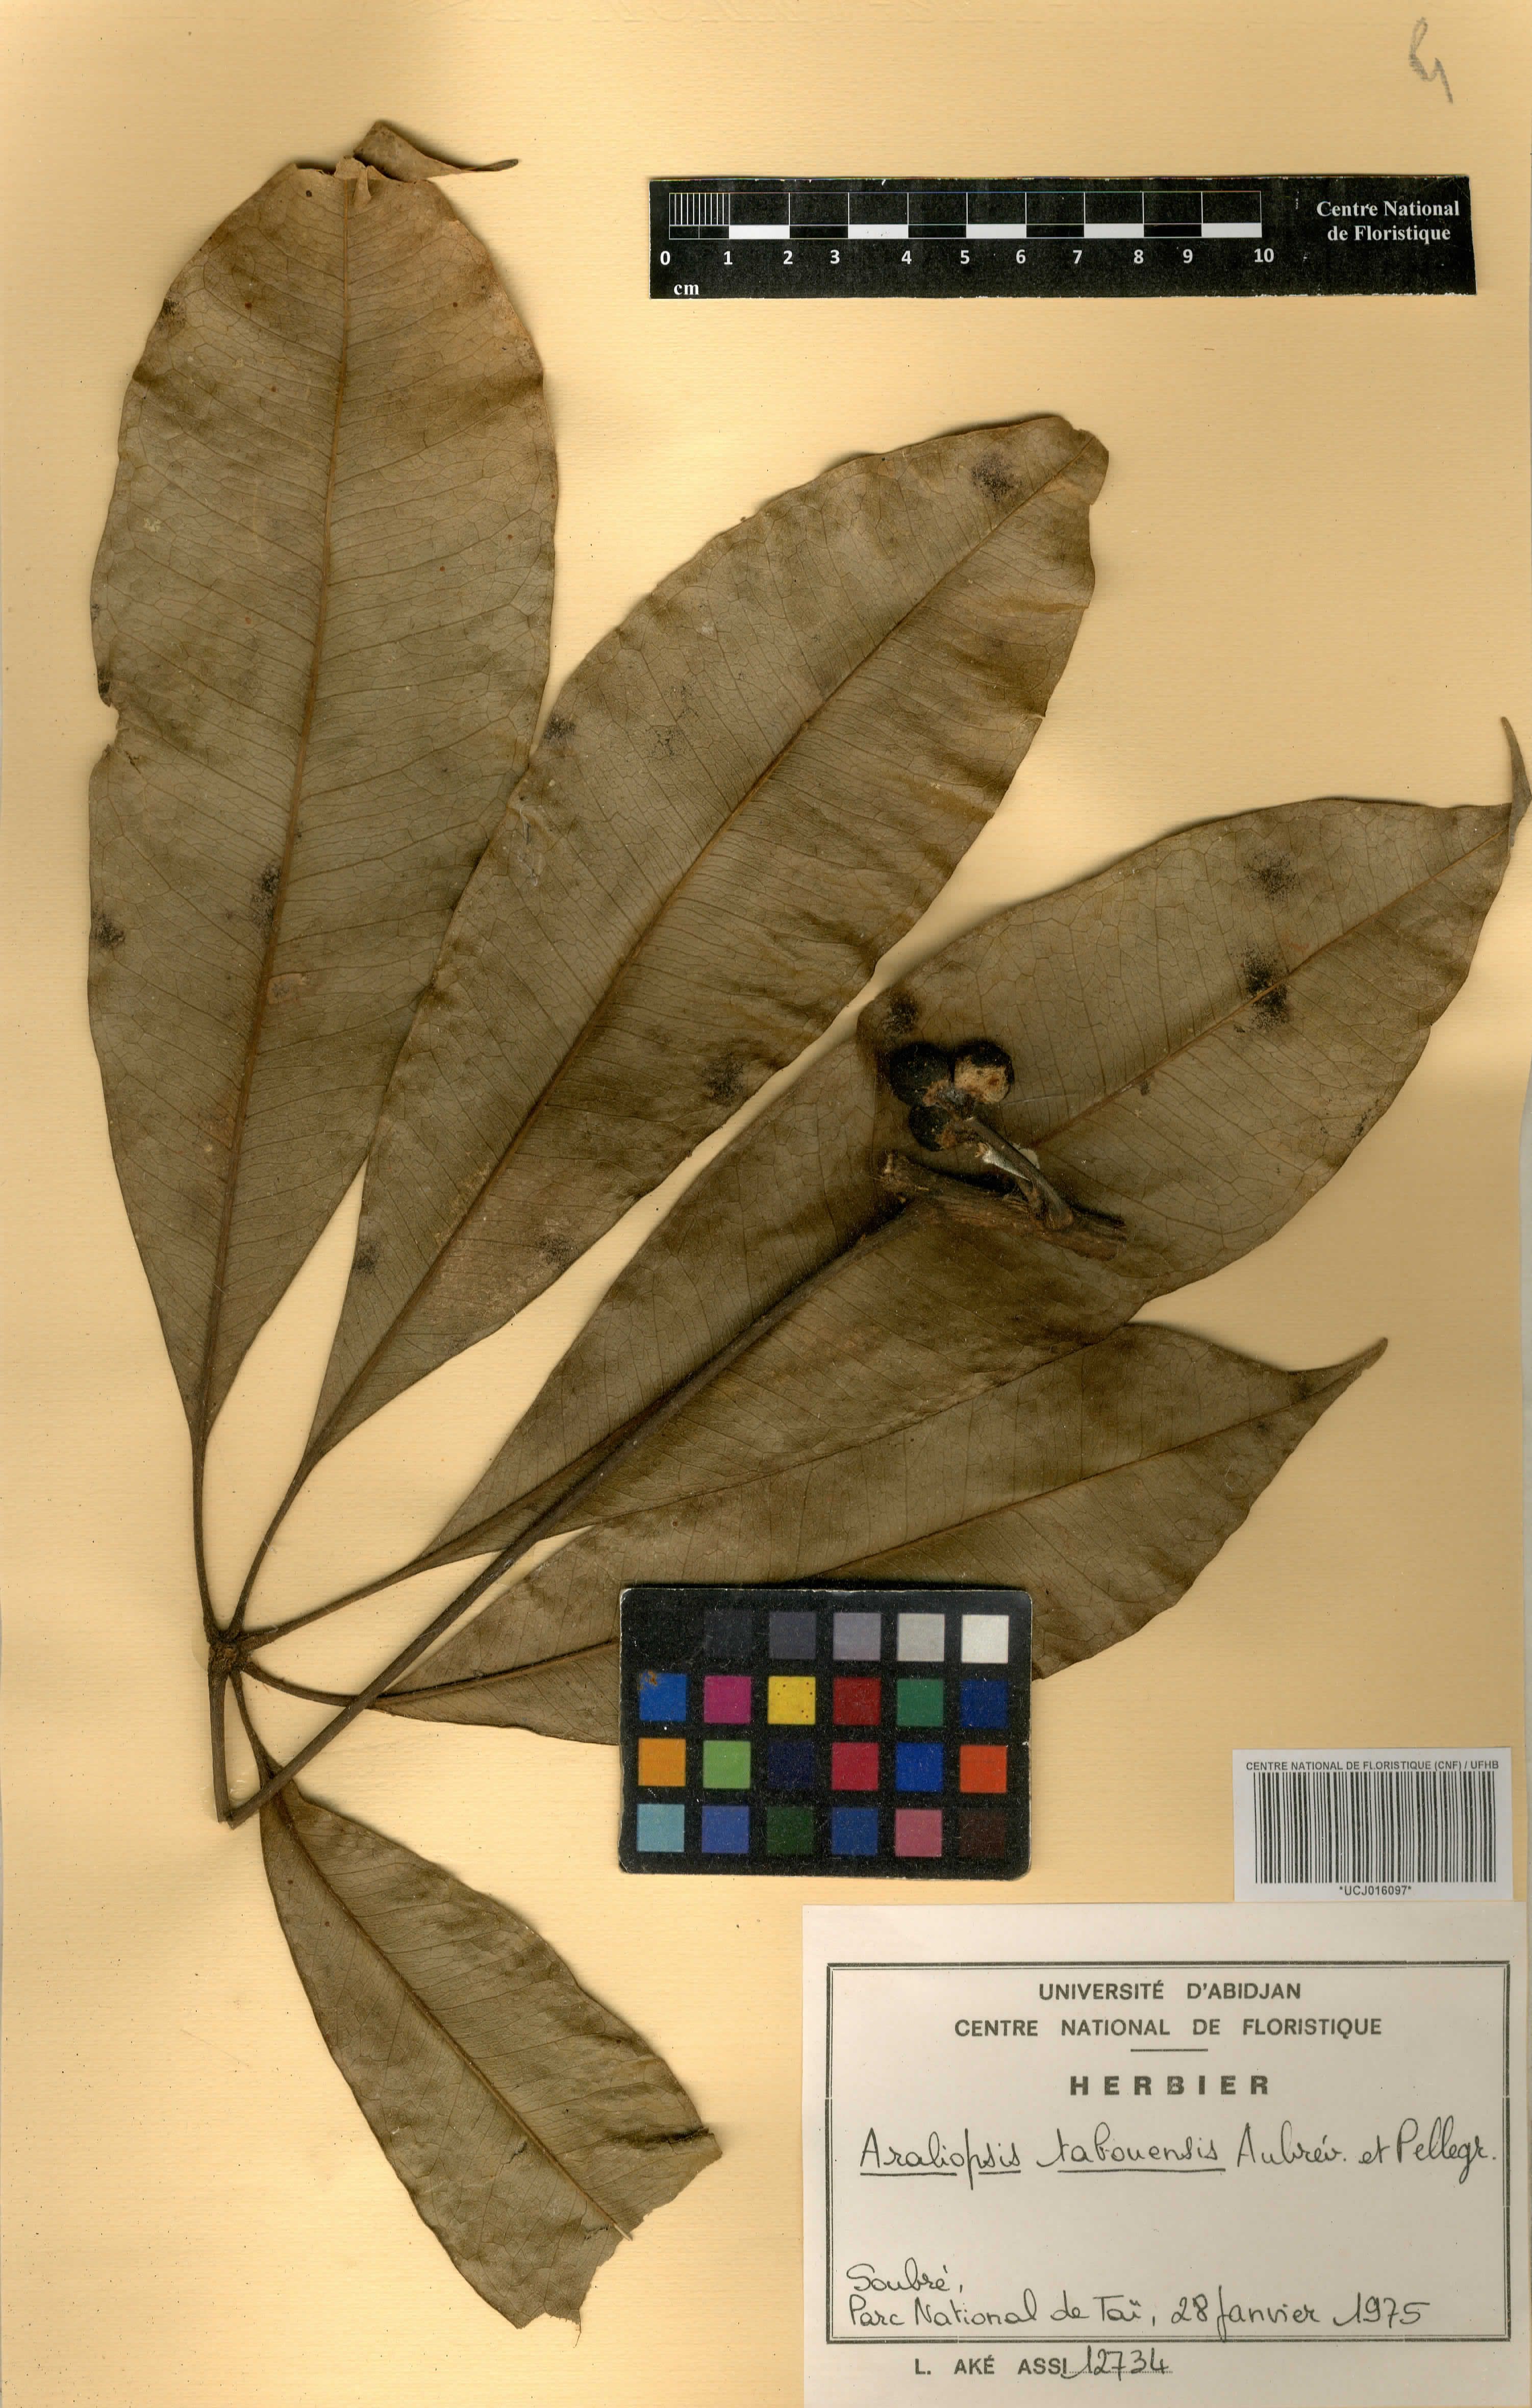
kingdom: Plantae
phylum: Tracheophyta
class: Magnoliopsida
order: Sapindales
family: Rutaceae
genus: Vepris
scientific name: Vepris tabouensis
